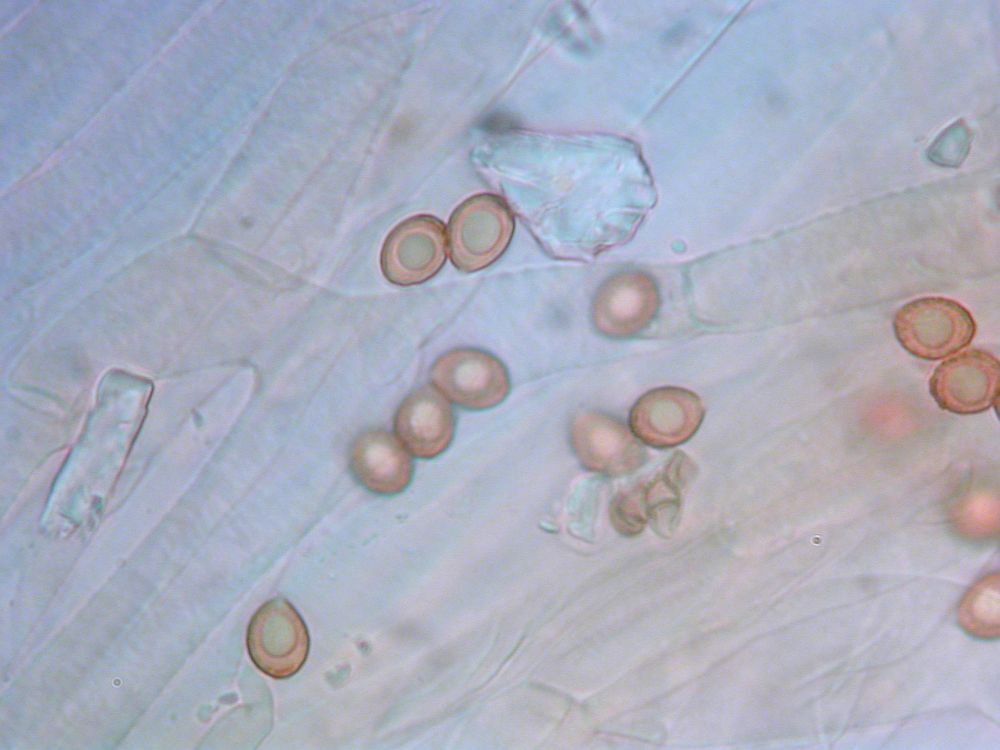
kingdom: Fungi
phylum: Basidiomycota
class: Agaricomycetes
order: Agaricales
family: Cortinariaceae
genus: Cortinarius
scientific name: Cortinarius raphanoides
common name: ræddike-slørhat
